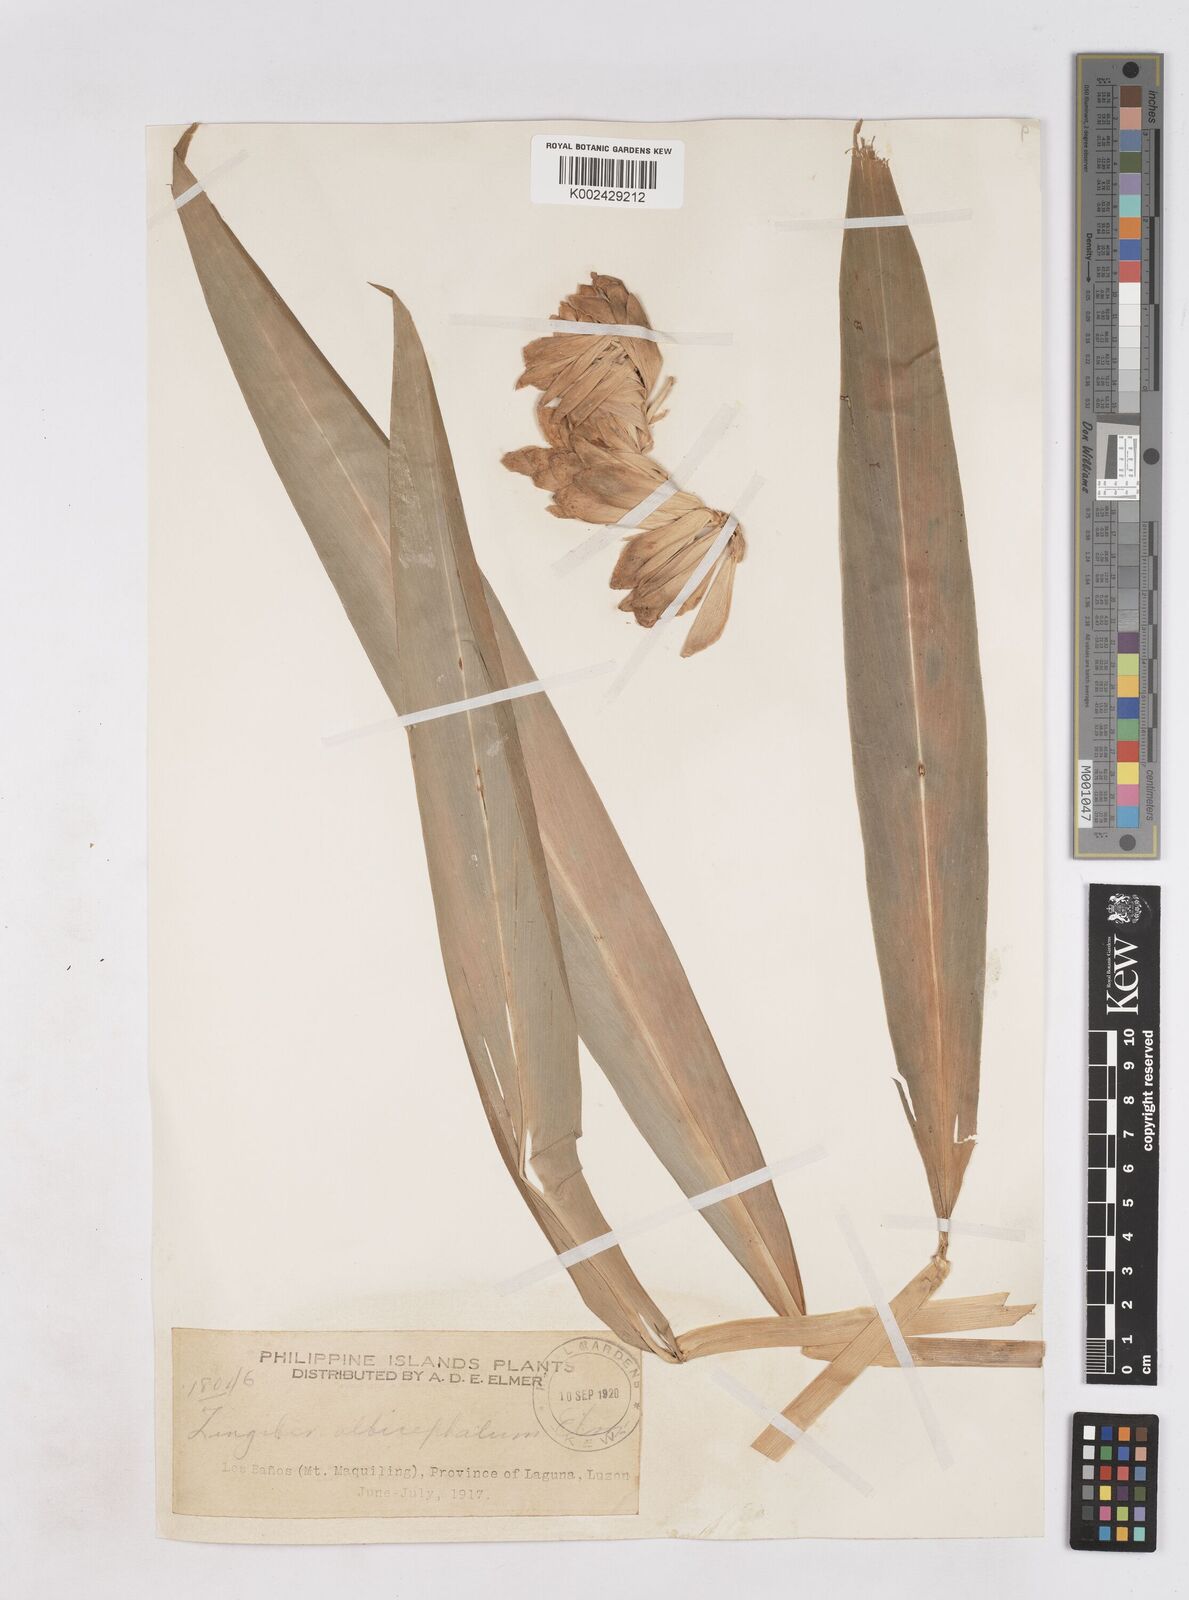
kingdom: Plantae
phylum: Tracheophyta
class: Liliopsida
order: Zingiberales
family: Zingiberaceae
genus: Zingiber
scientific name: Zingiber
